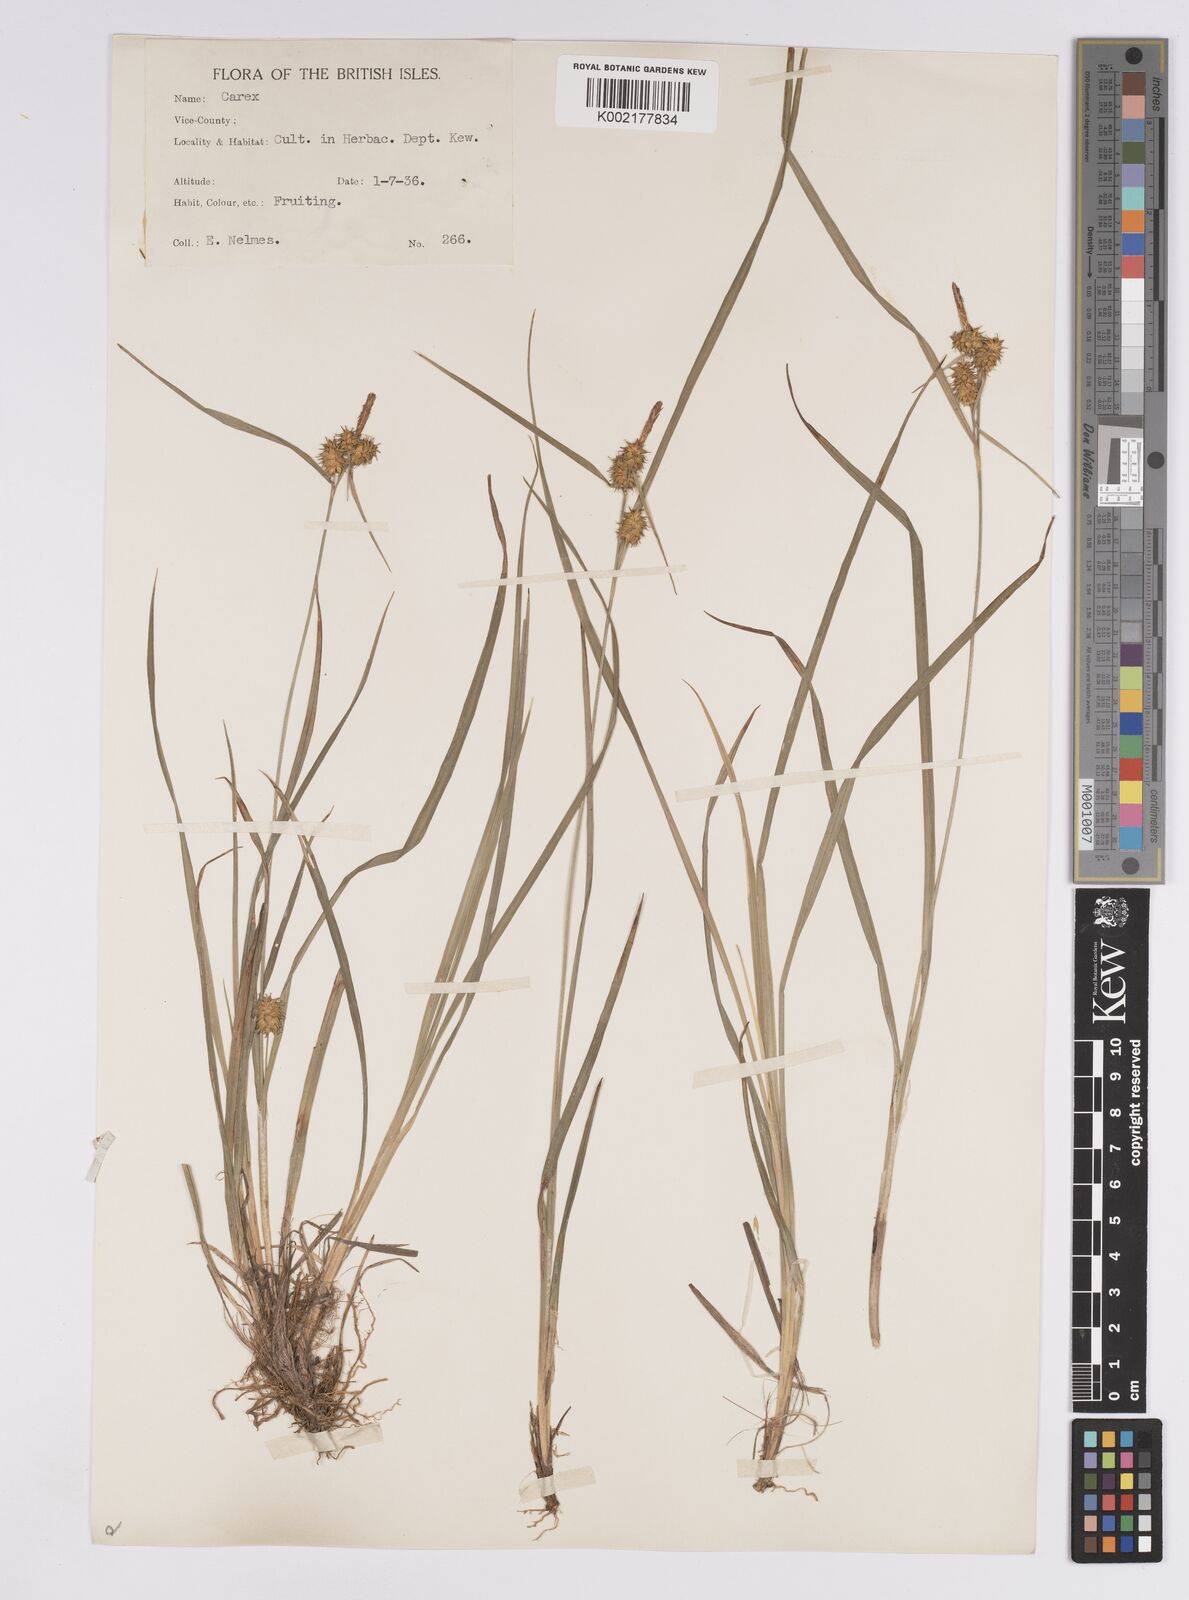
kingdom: Plantae
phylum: Tracheophyta
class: Liliopsida
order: Poales
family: Cyperaceae
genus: Carex
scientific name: Carex flava
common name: Large yellow-sedge
